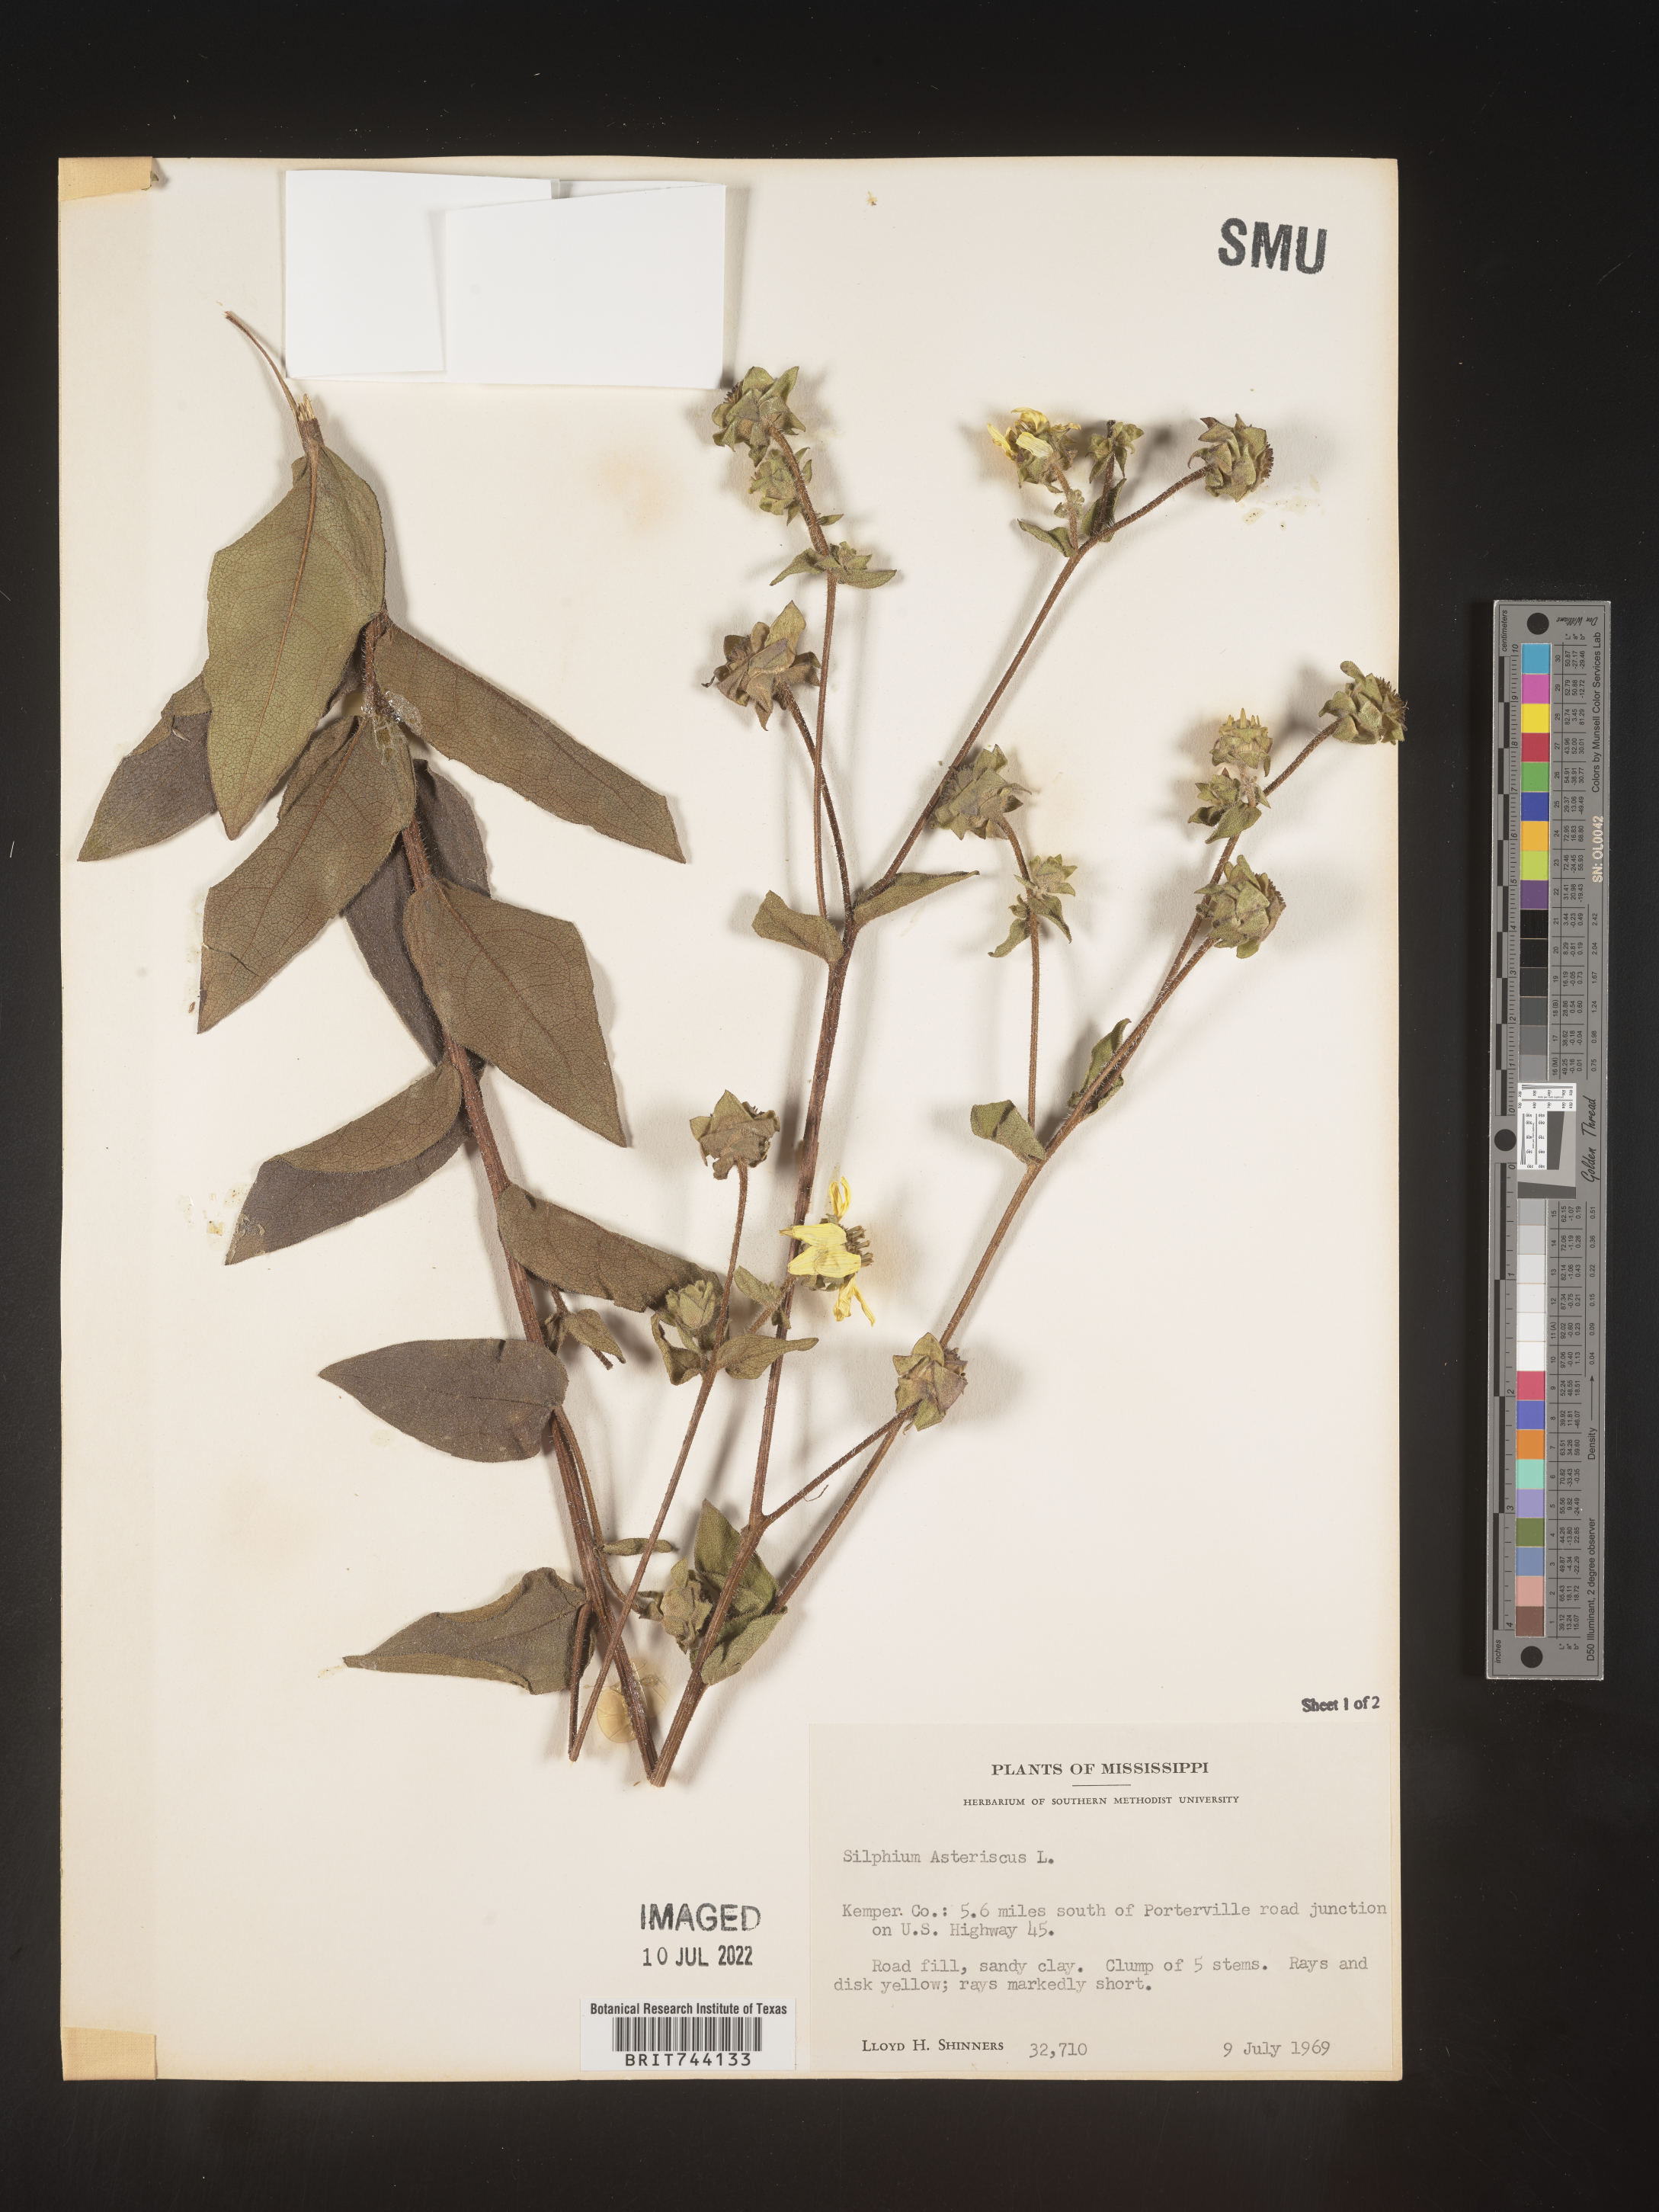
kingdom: Plantae
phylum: Tracheophyta
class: Magnoliopsida
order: Asterales
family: Asteraceae
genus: Silphium
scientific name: Silphium asteriscus
